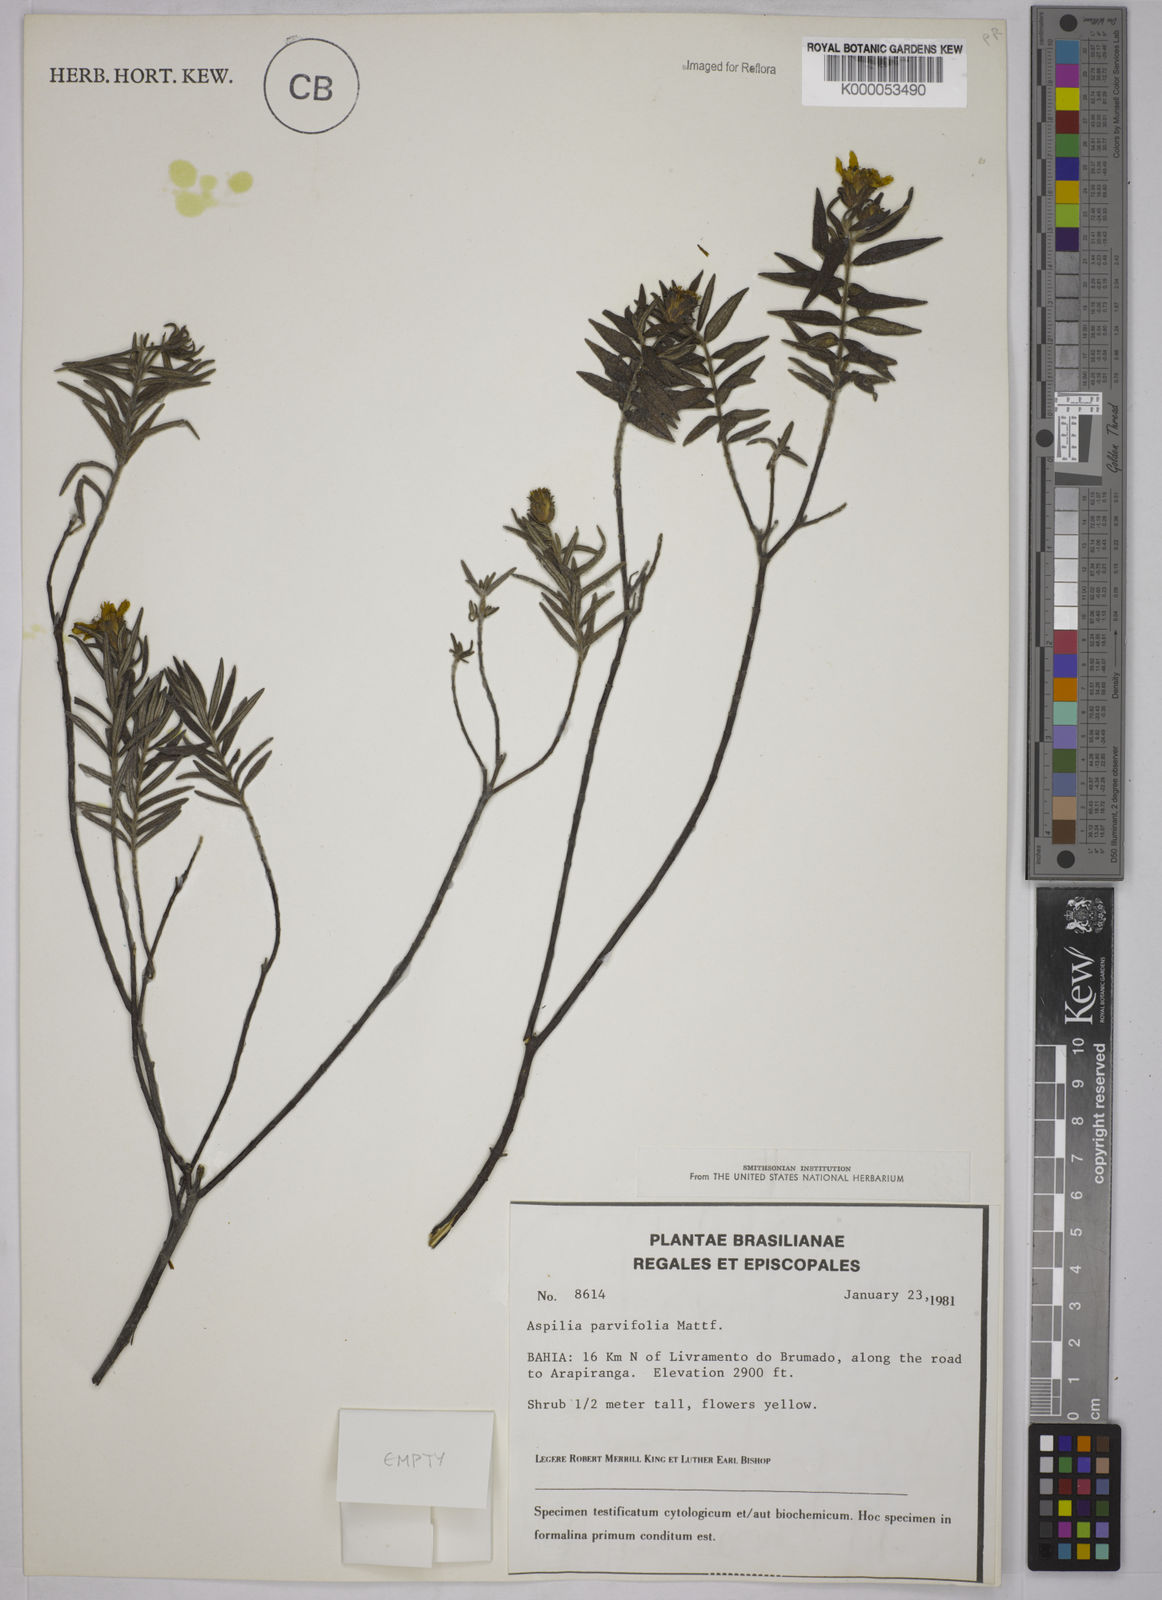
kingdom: Plantae
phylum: Tracheophyta
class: Magnoliopsida
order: Asterales
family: Asteraceae
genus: Aspilia
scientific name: Aspilia foliosa
